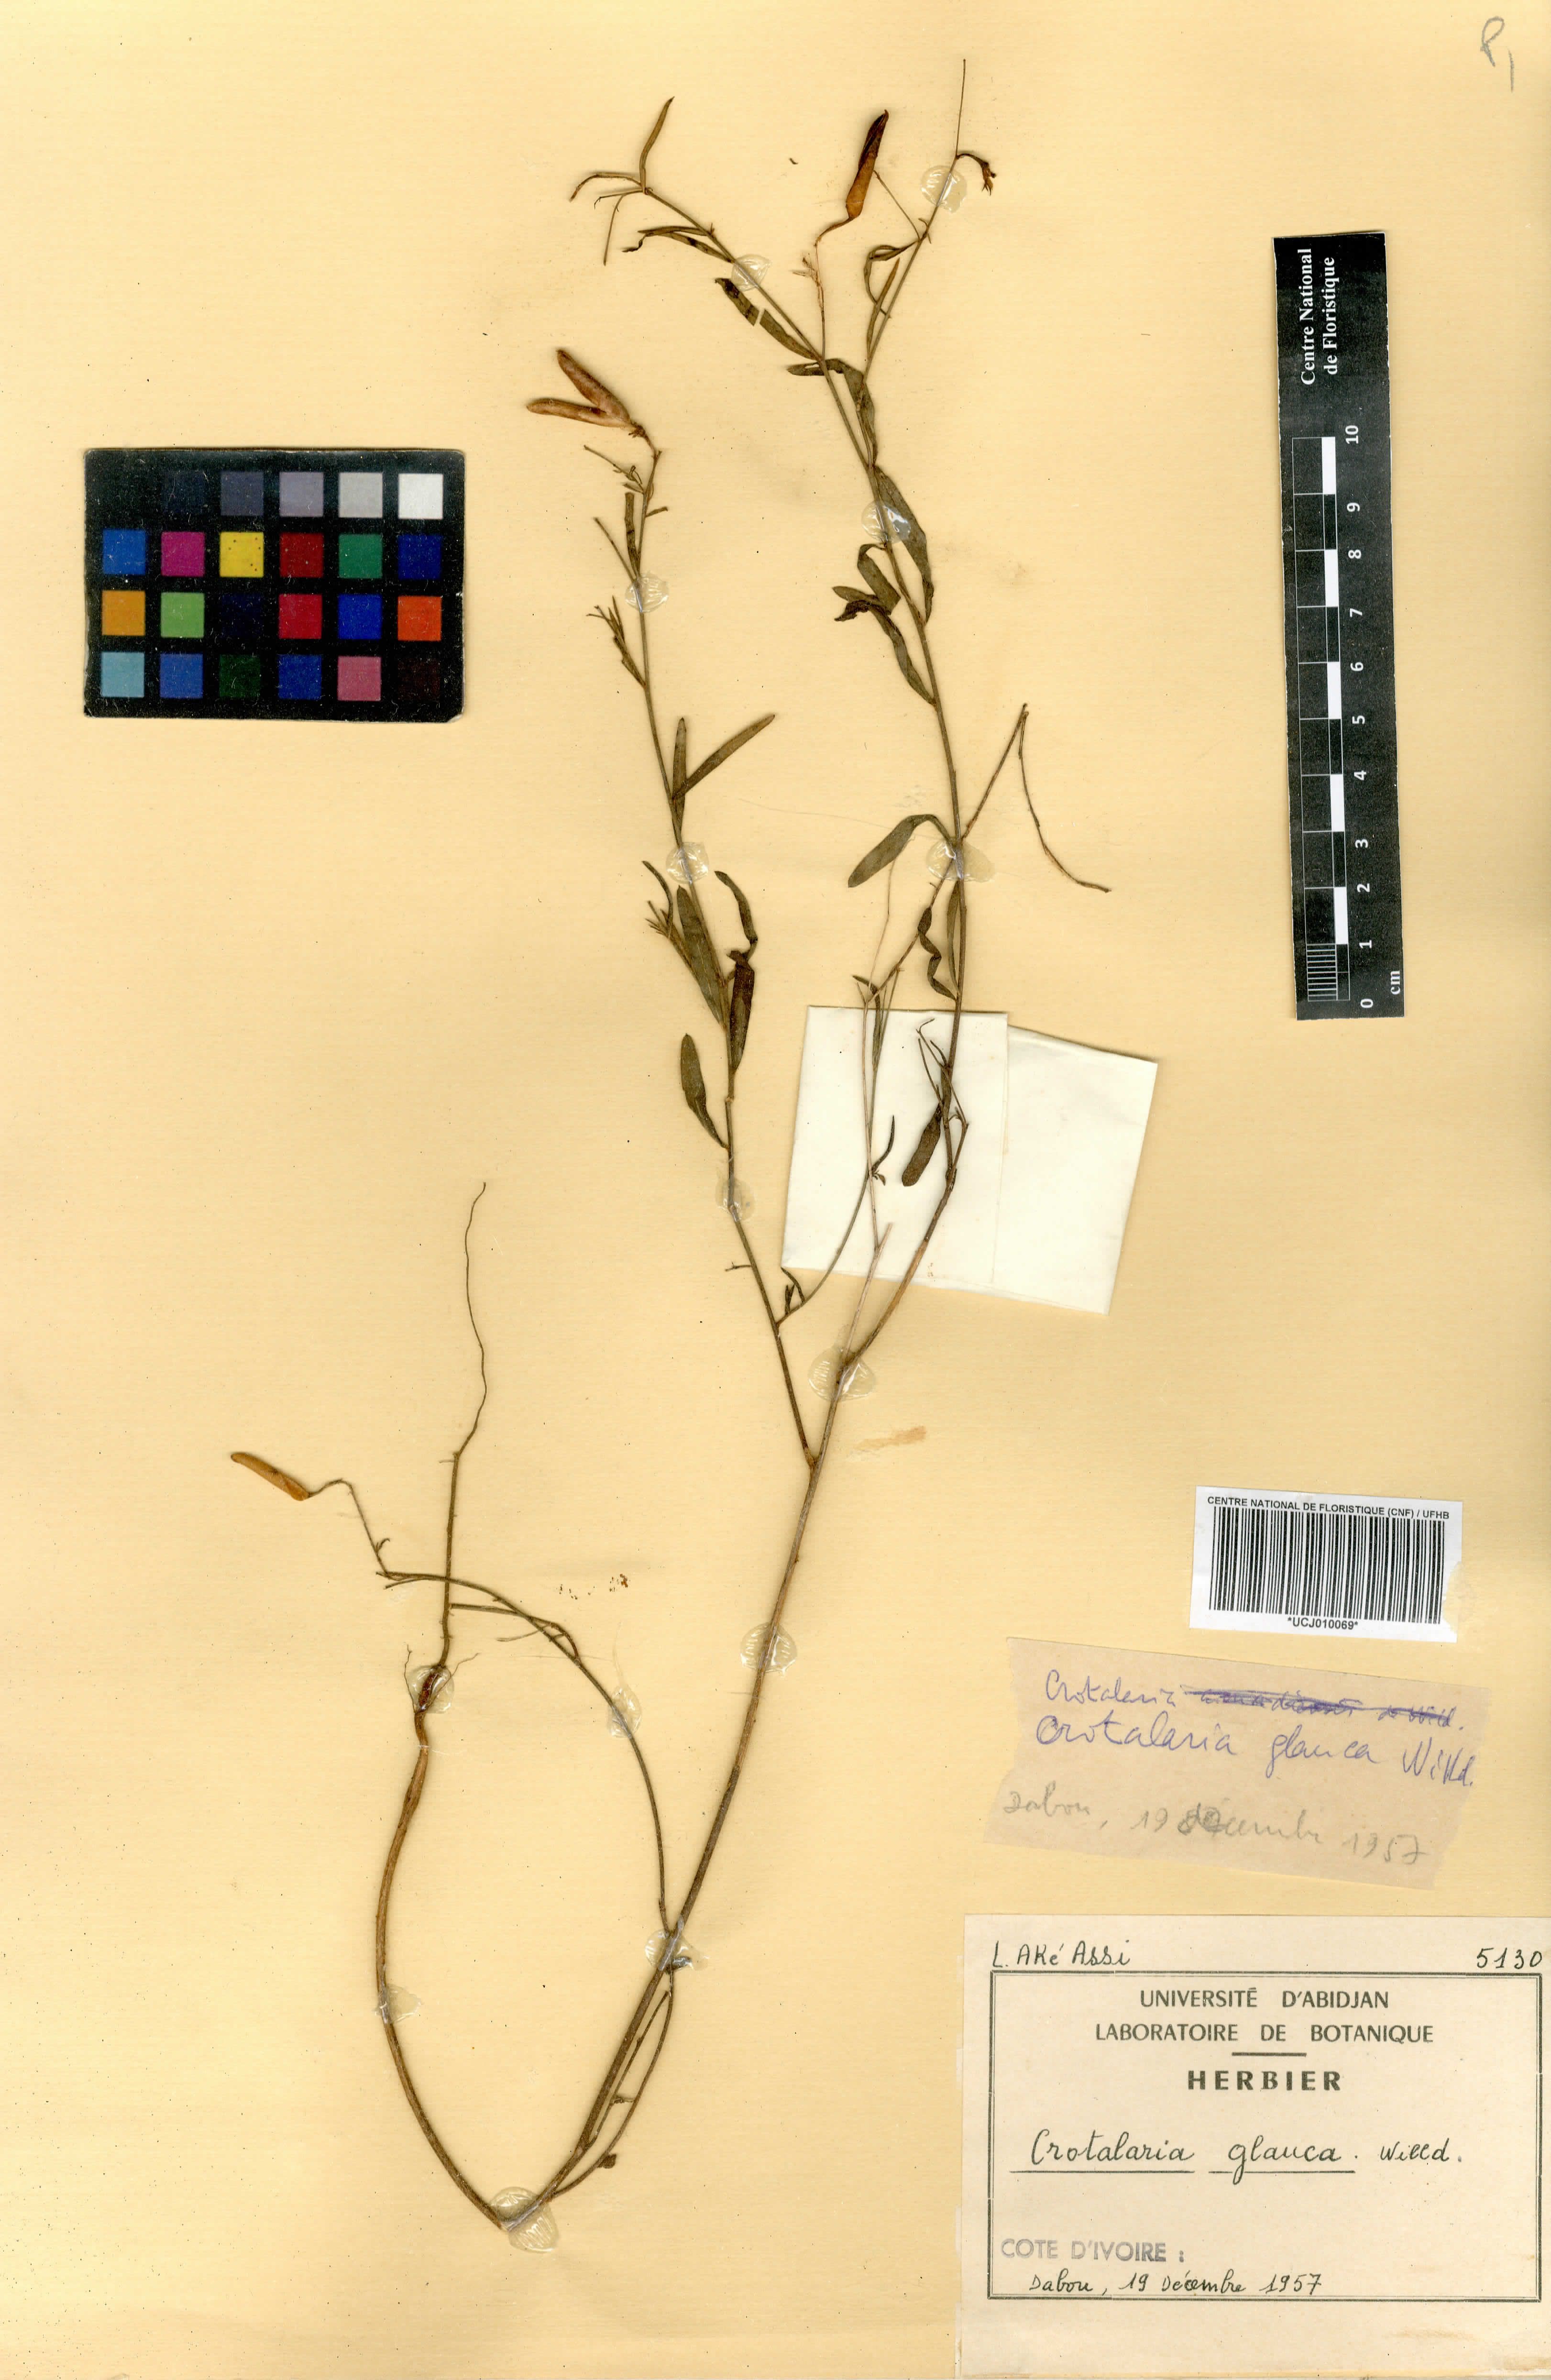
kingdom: Plantae
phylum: Tracheophyta
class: Magnoliopsida
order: Fabales
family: Fabaceae
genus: Crotalaria
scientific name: Crotalaria glauca
